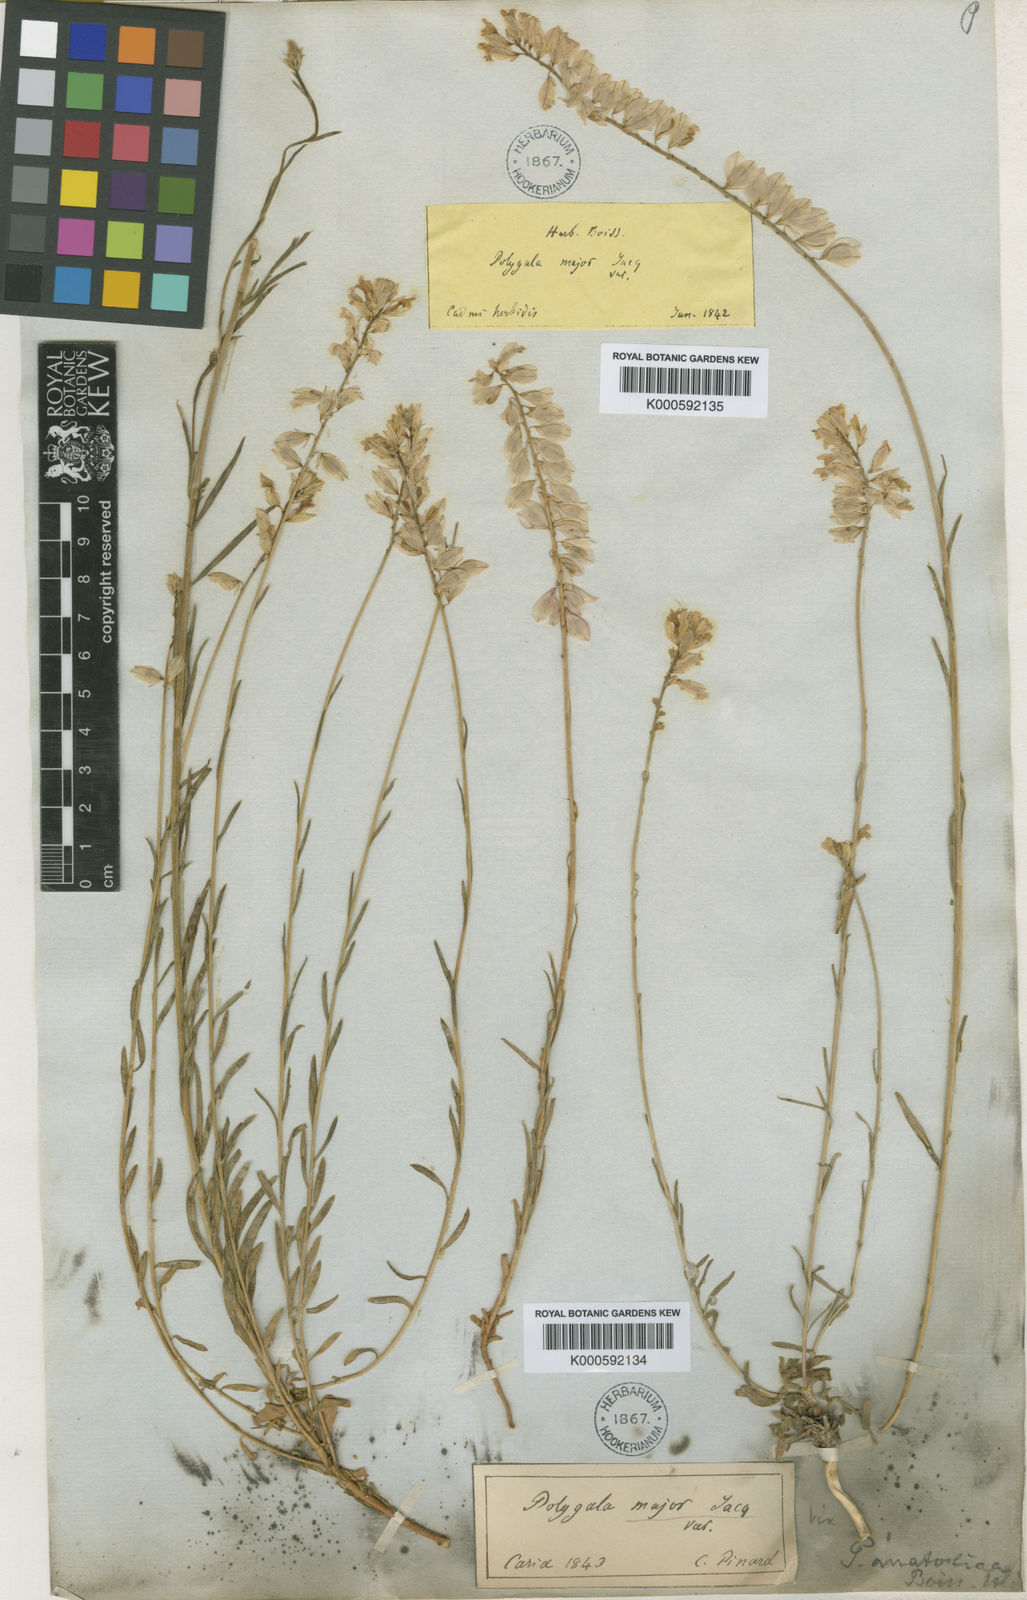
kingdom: Plantae
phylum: Tracheophyta
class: Magnoliopsida
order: Fabales
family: Polygalaceae
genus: Polygala
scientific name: Polygala anatolica
